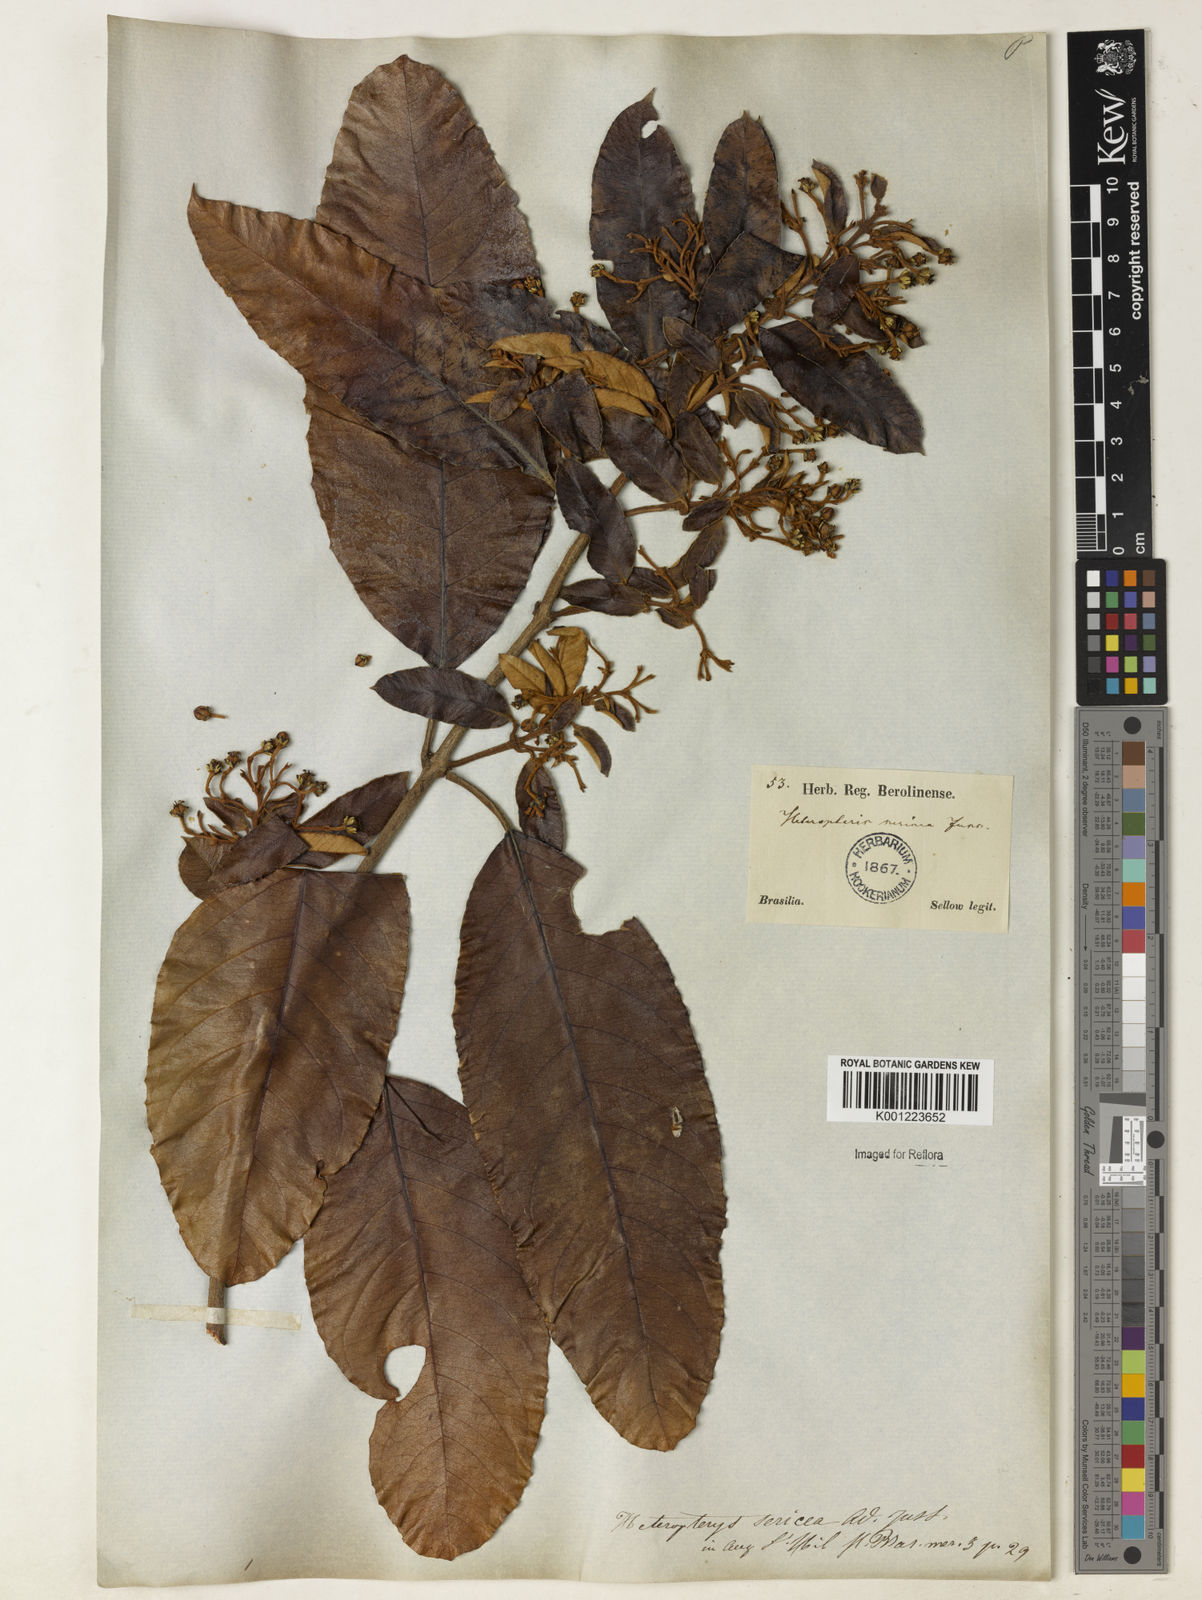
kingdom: Plantae
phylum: Tracheophyta
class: Magnoliopsida
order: Malpighiales
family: Malpighiaceae
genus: Heteropterys
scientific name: Heteropterys sericea
